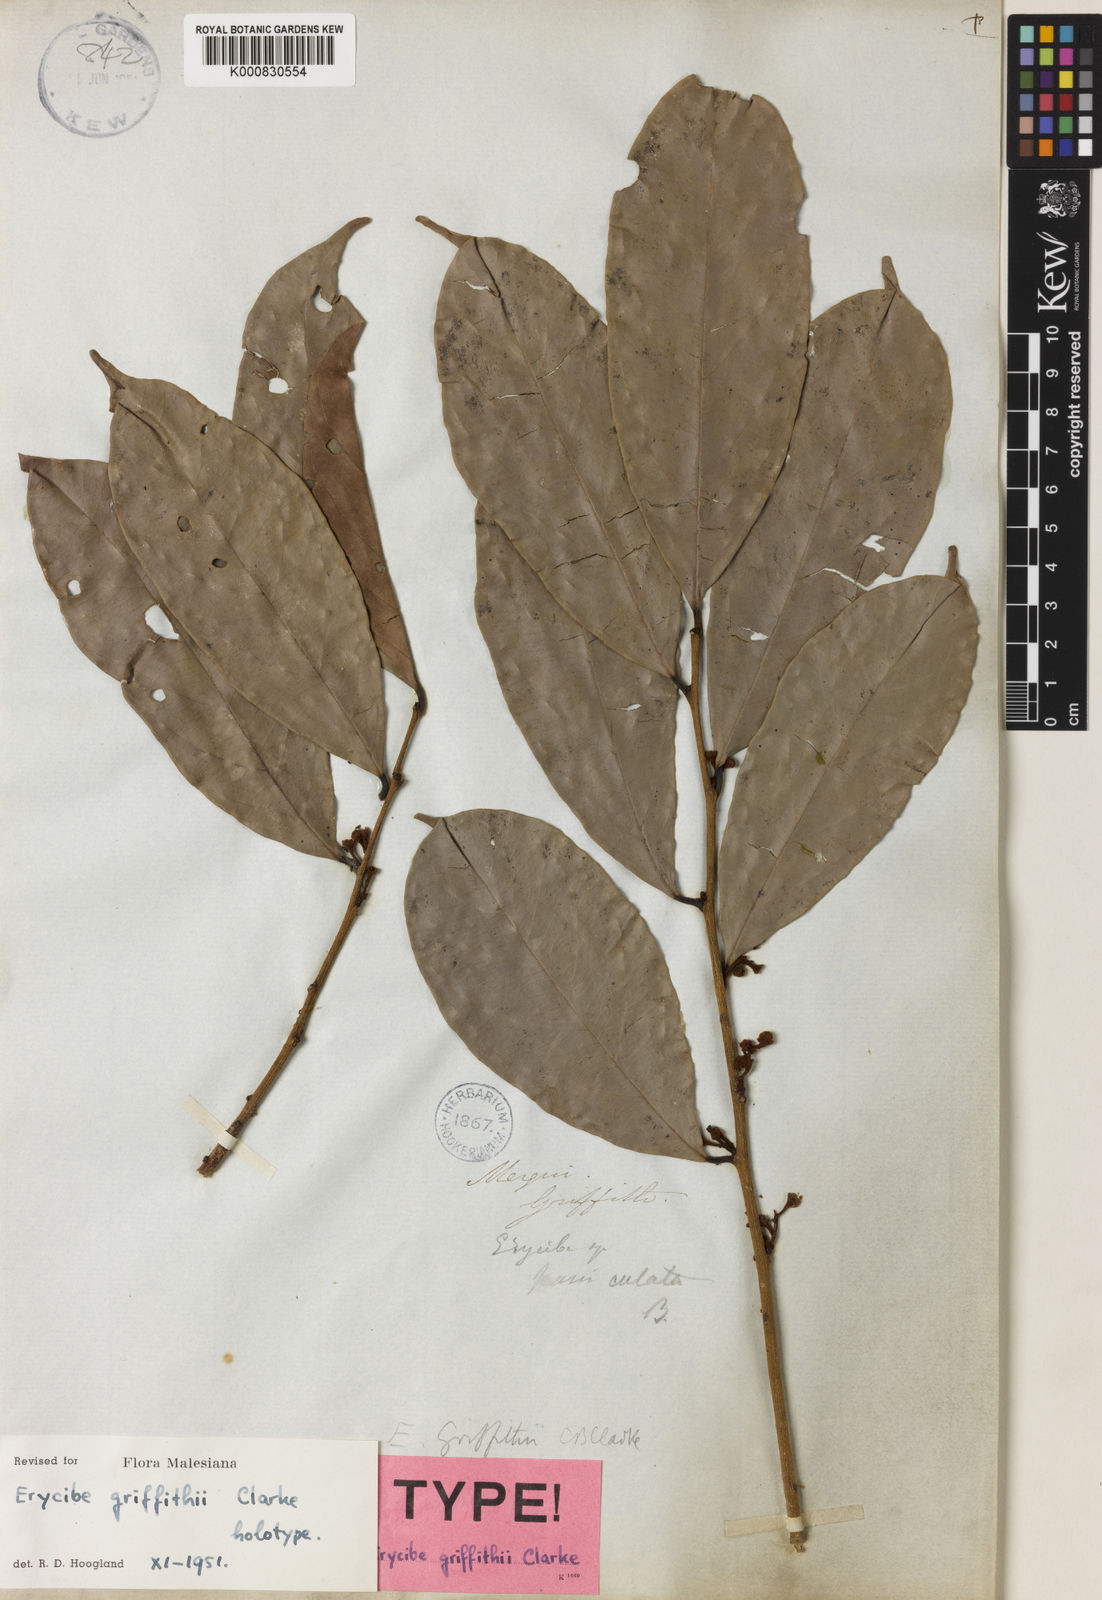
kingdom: Plantae
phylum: Tracheophyta
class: Magnoliopsida
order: Solanales
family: Convolvulaceae
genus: Erycibe
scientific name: Erycibe griffithii
